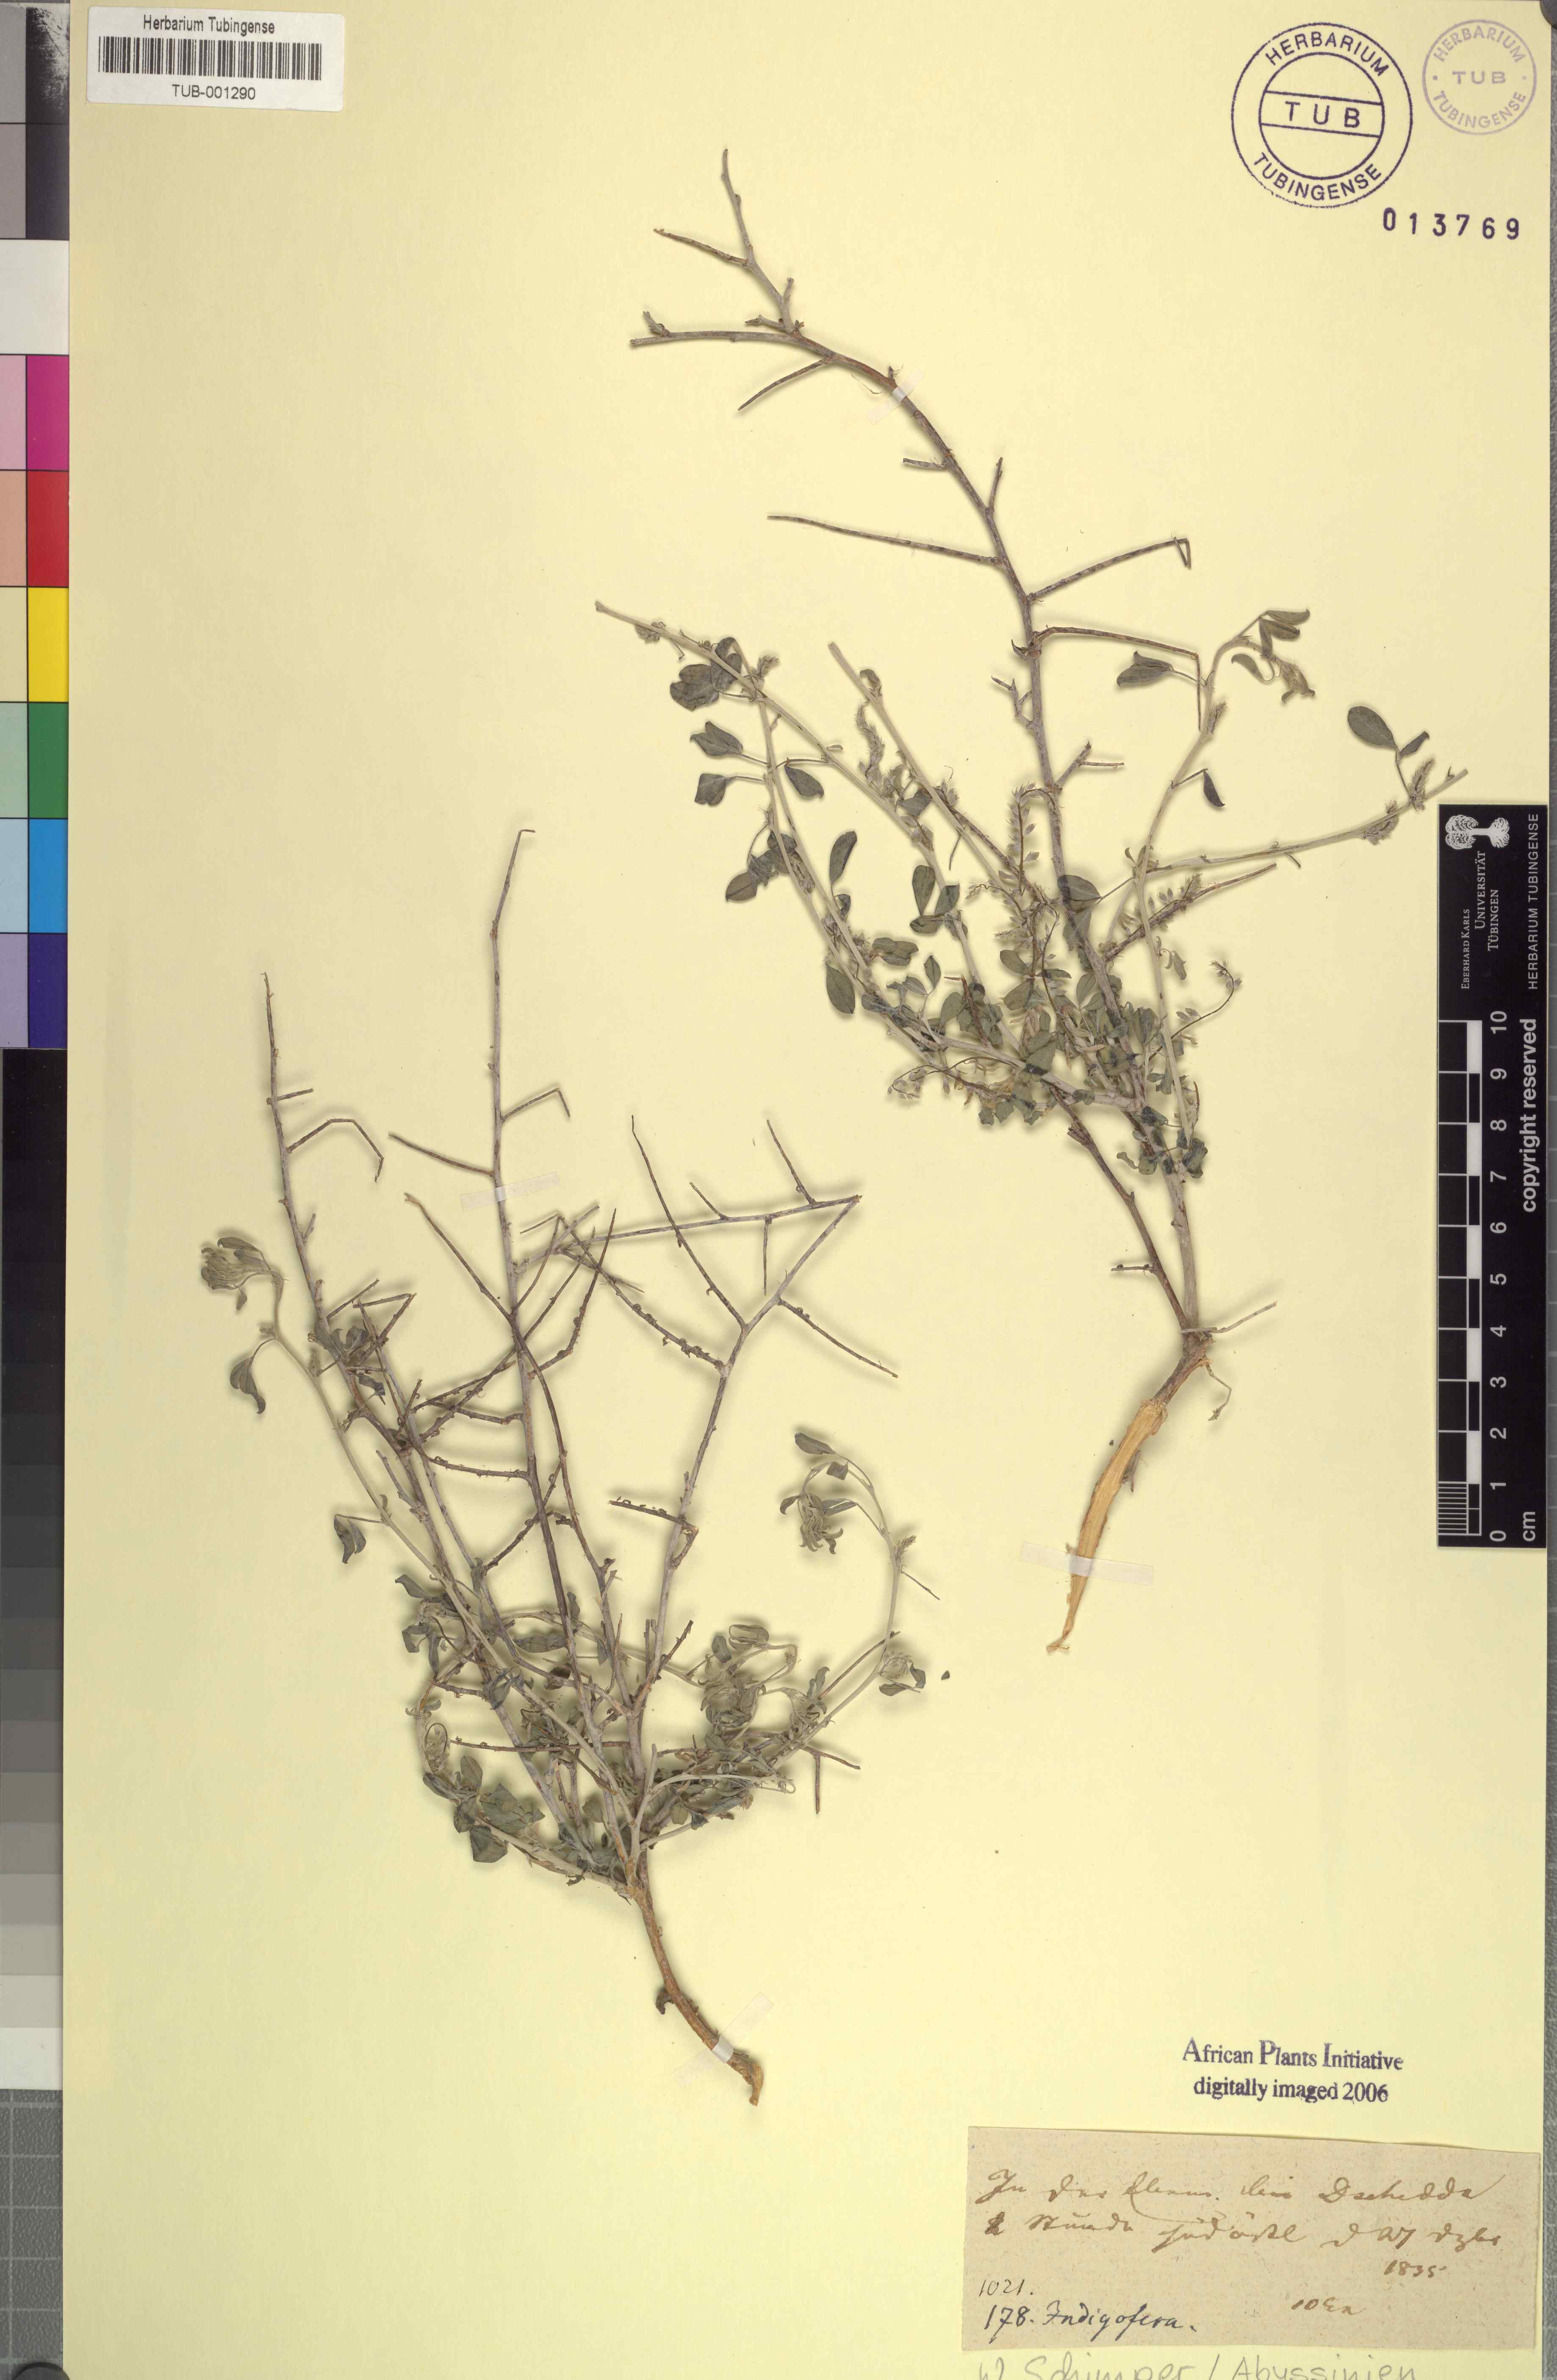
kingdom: Plantae
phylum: Tracheophyta
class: Magnoliopsida
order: Fabales
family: Fabaceae
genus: Indigofera
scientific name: Indigofera spiniflora
